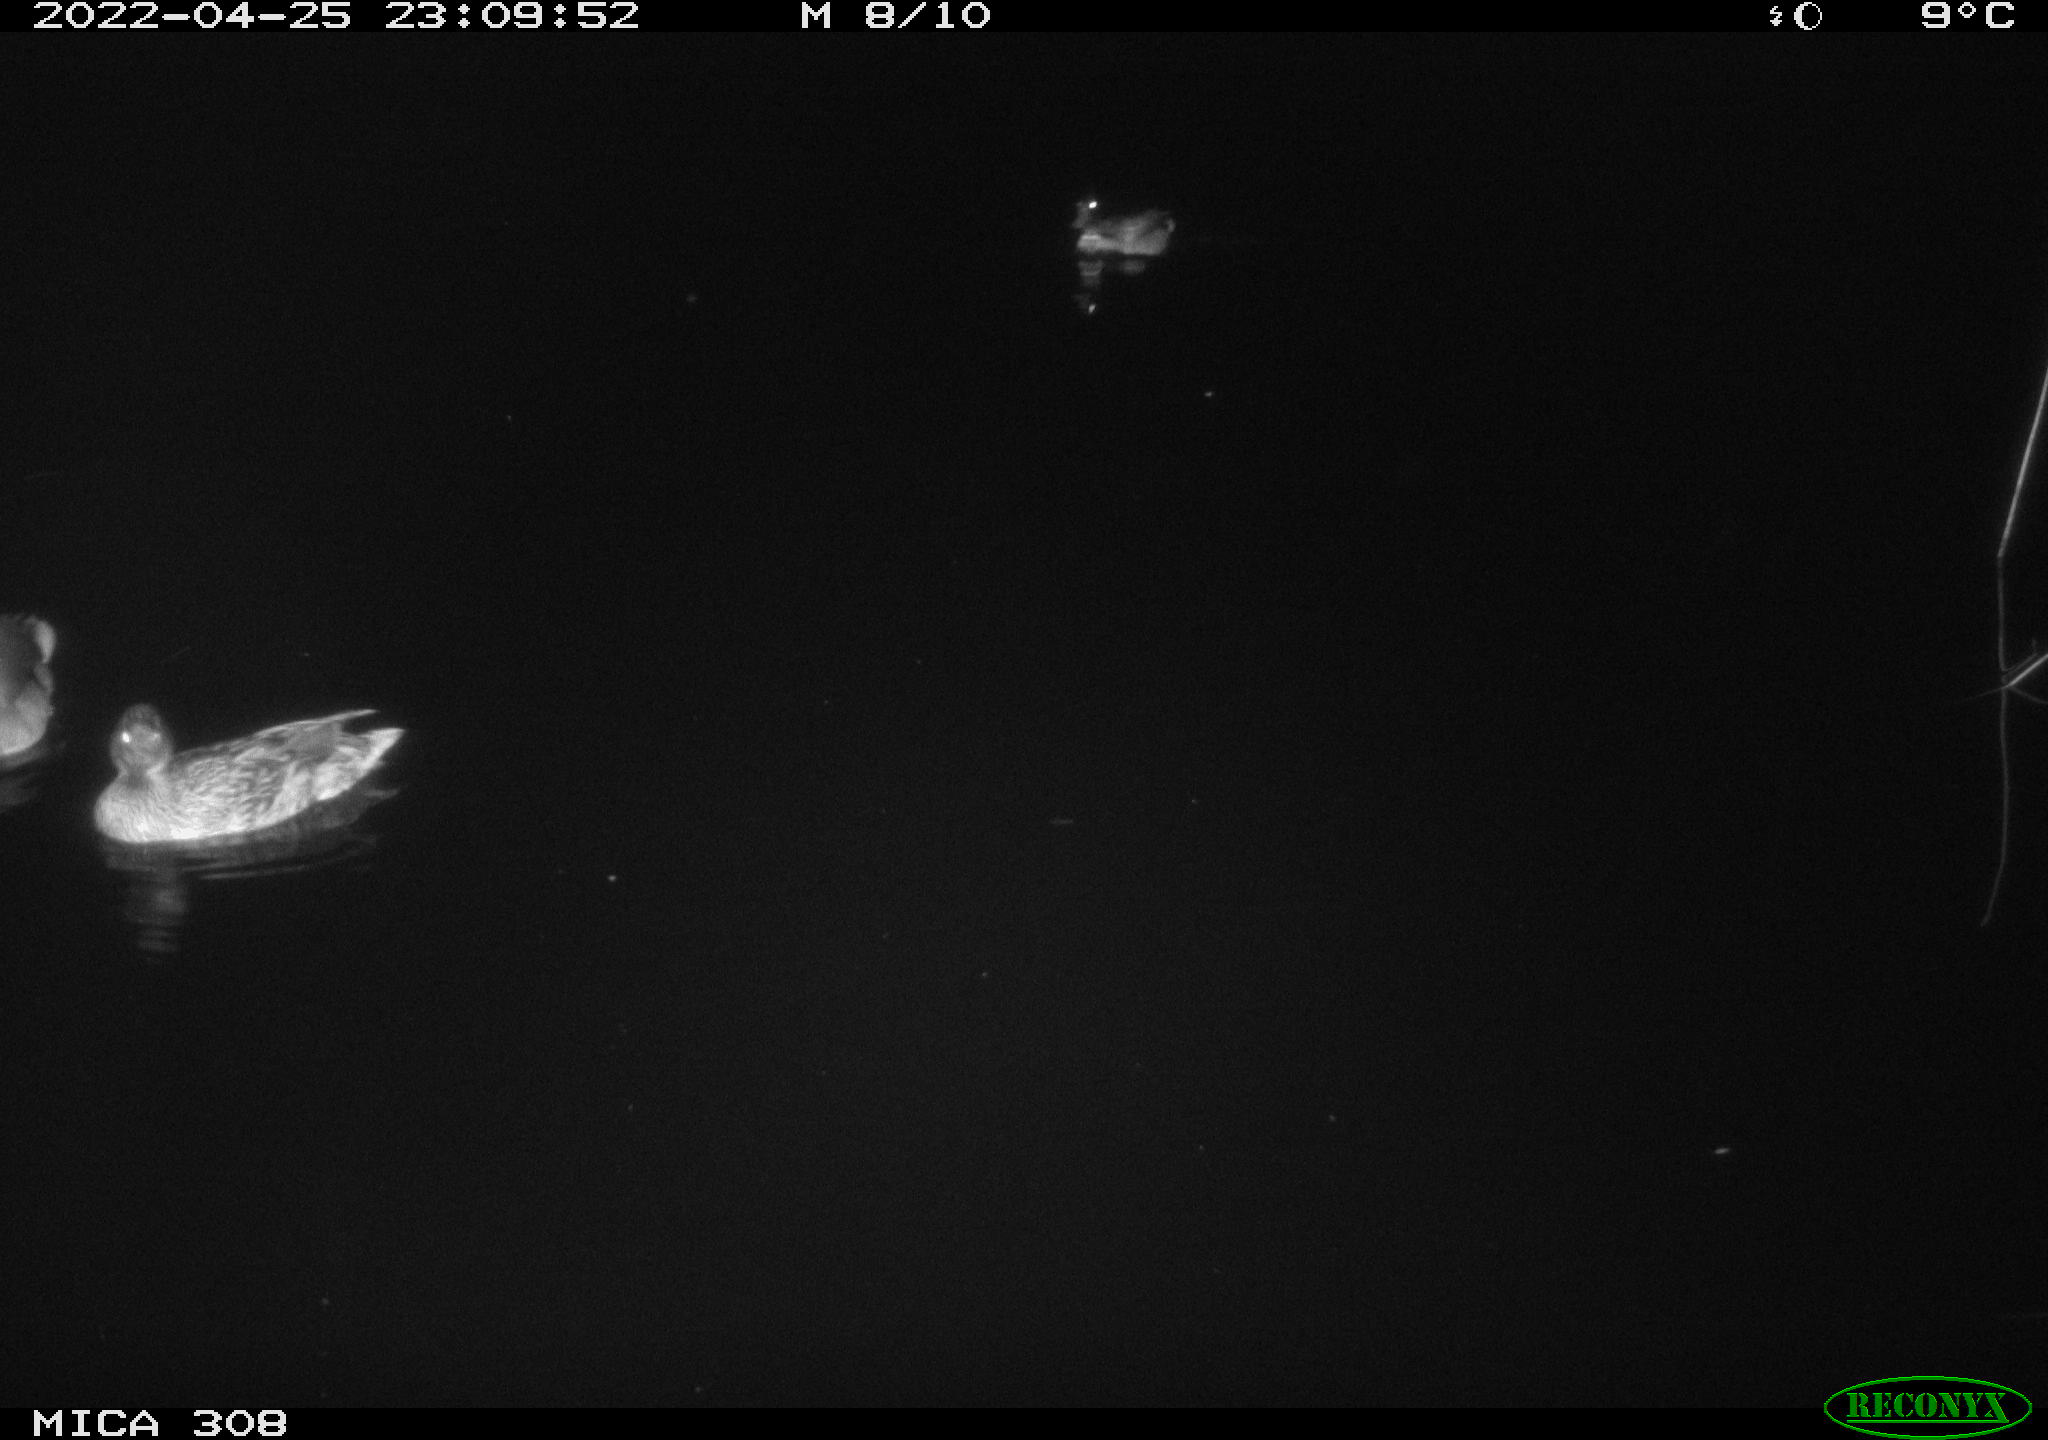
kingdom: Animalia
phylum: Chordata
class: Aves
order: Anseriformes
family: Anatidae
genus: Anas
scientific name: Anas platyrhynchos
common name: Mallard
